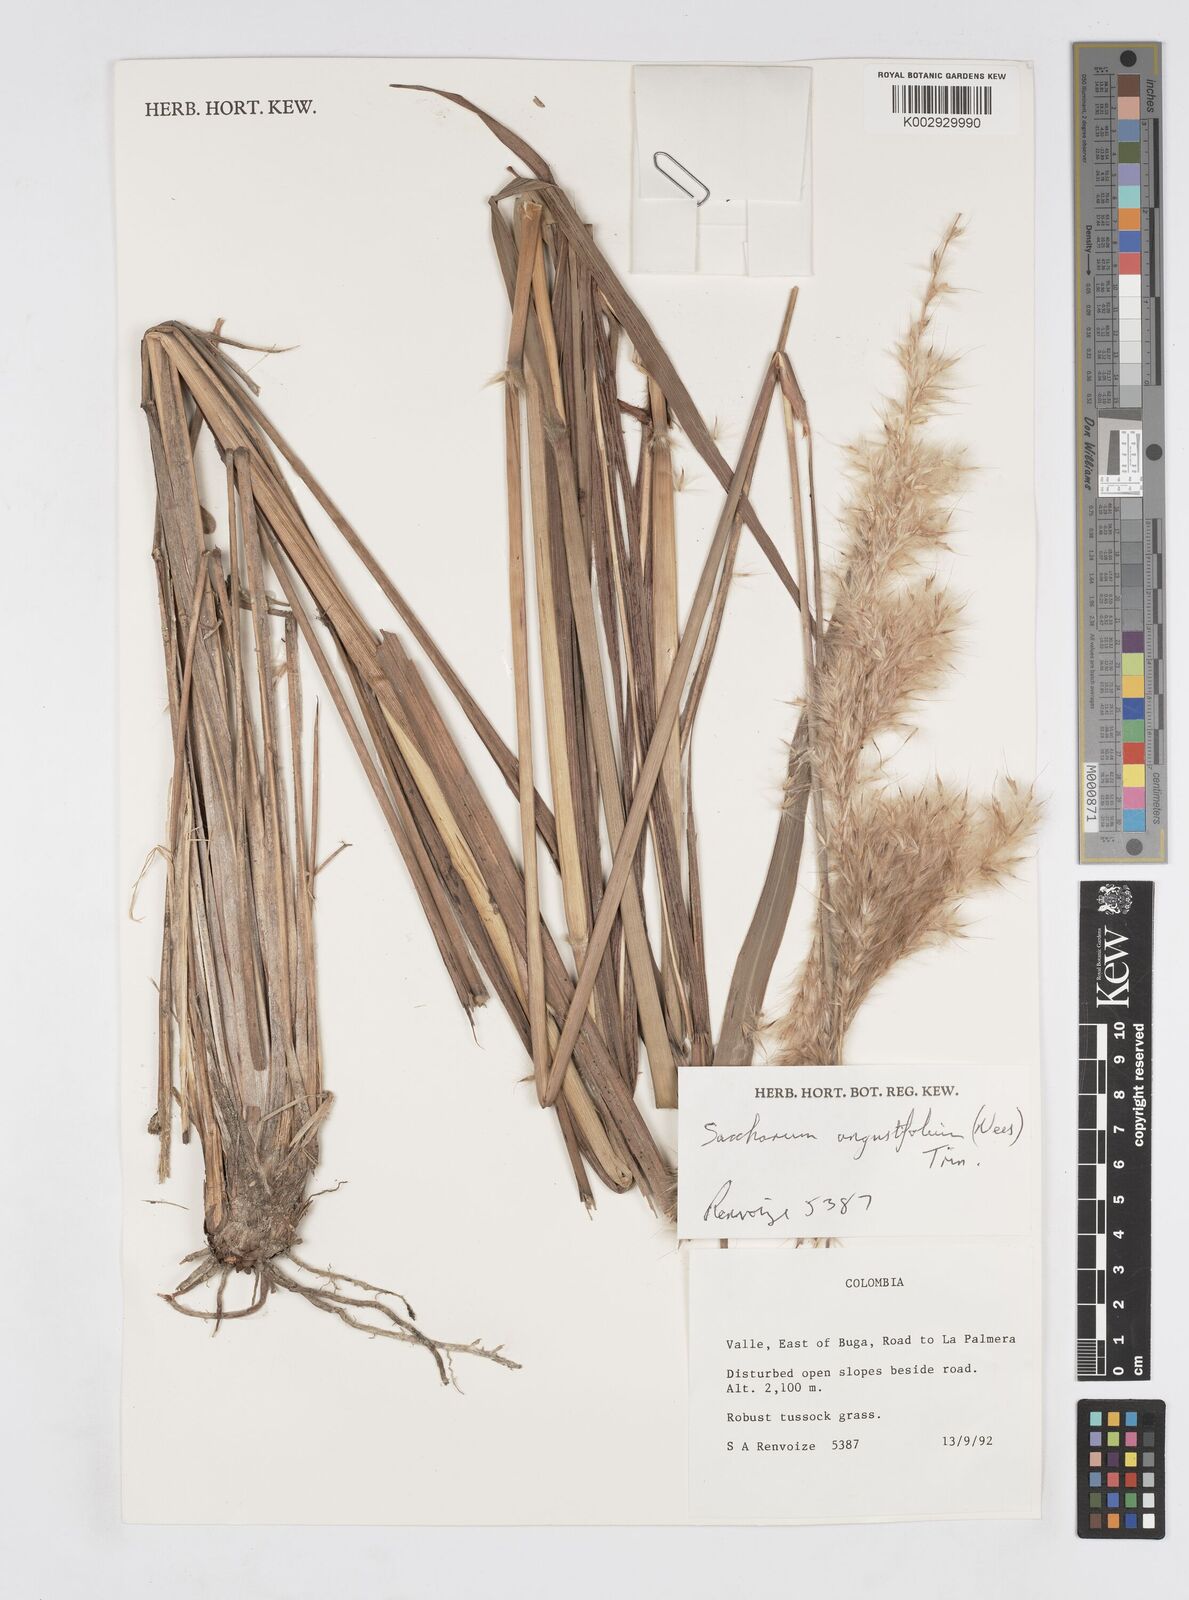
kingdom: Plantae
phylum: Tracheophyta
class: Liliopsida
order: Poales
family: Poaceae
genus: Saccharum
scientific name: Saccharum angustifolium
